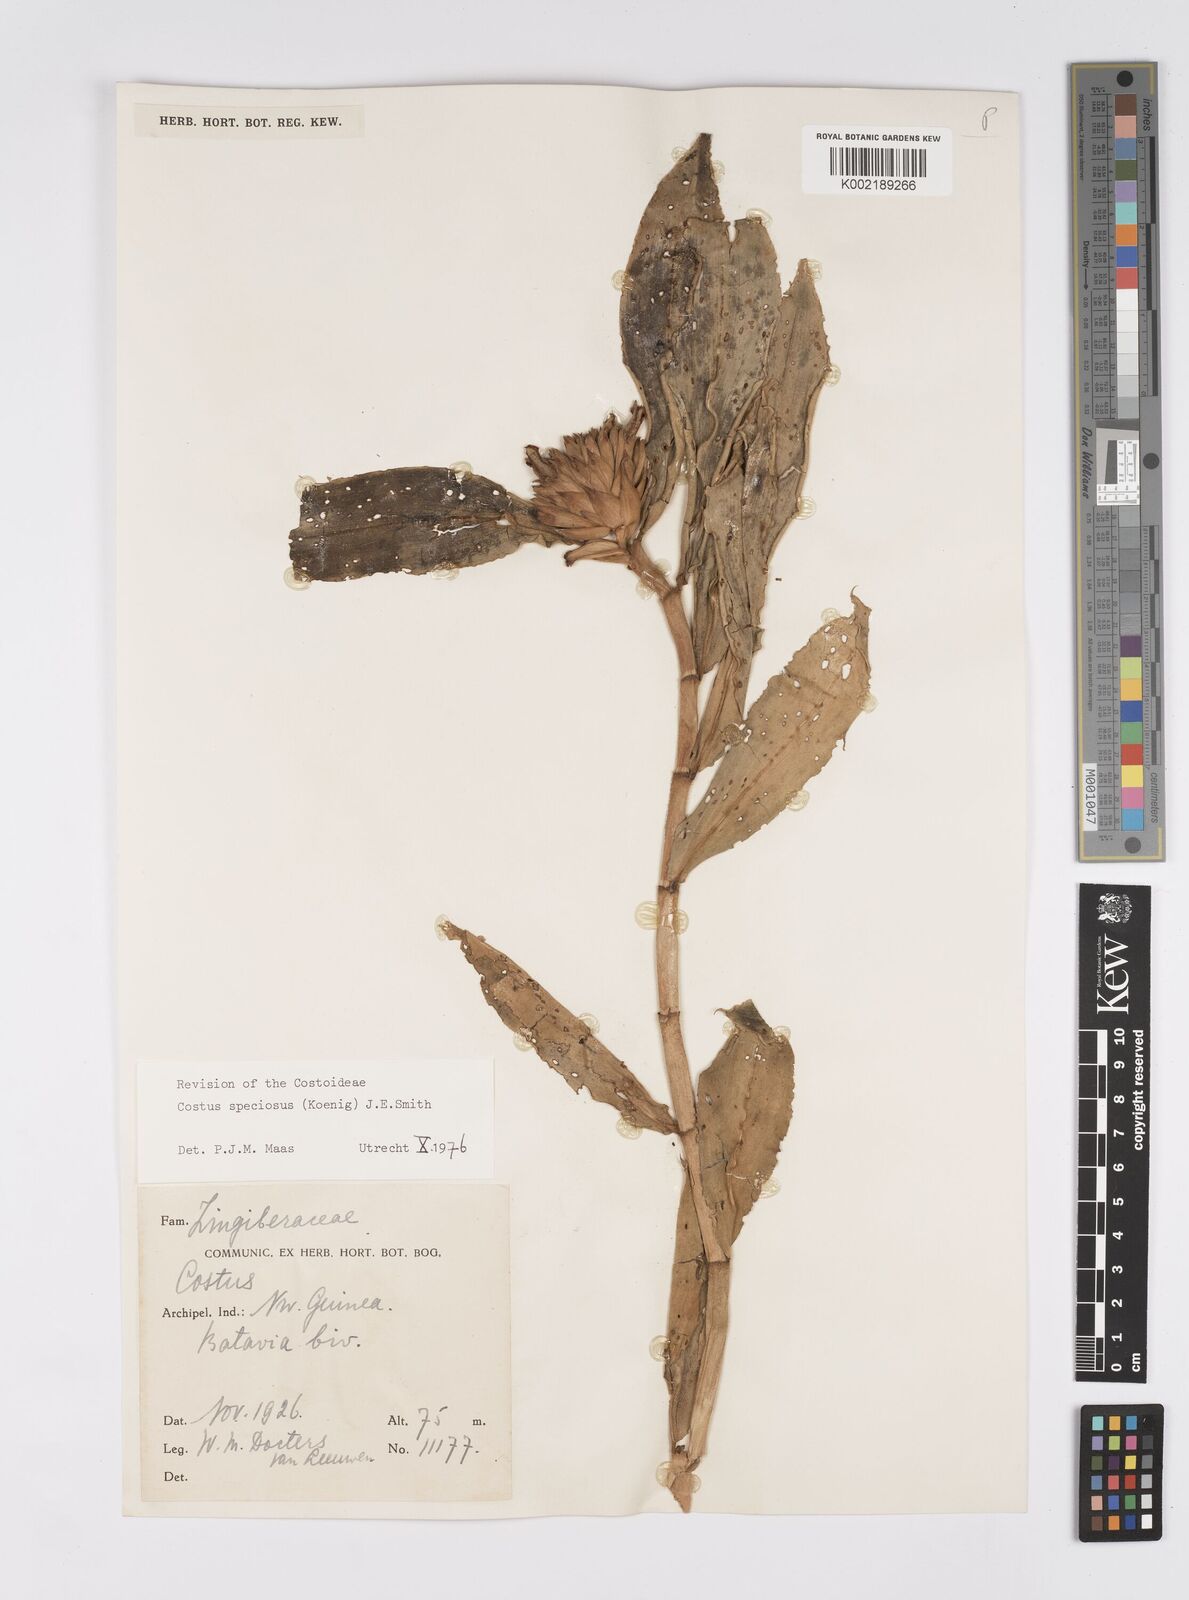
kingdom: Plantae
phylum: Tracheophyta
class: Liliopsida
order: Zingiberales
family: Costaceae
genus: Hellenia
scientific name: Hellenia speciosa
